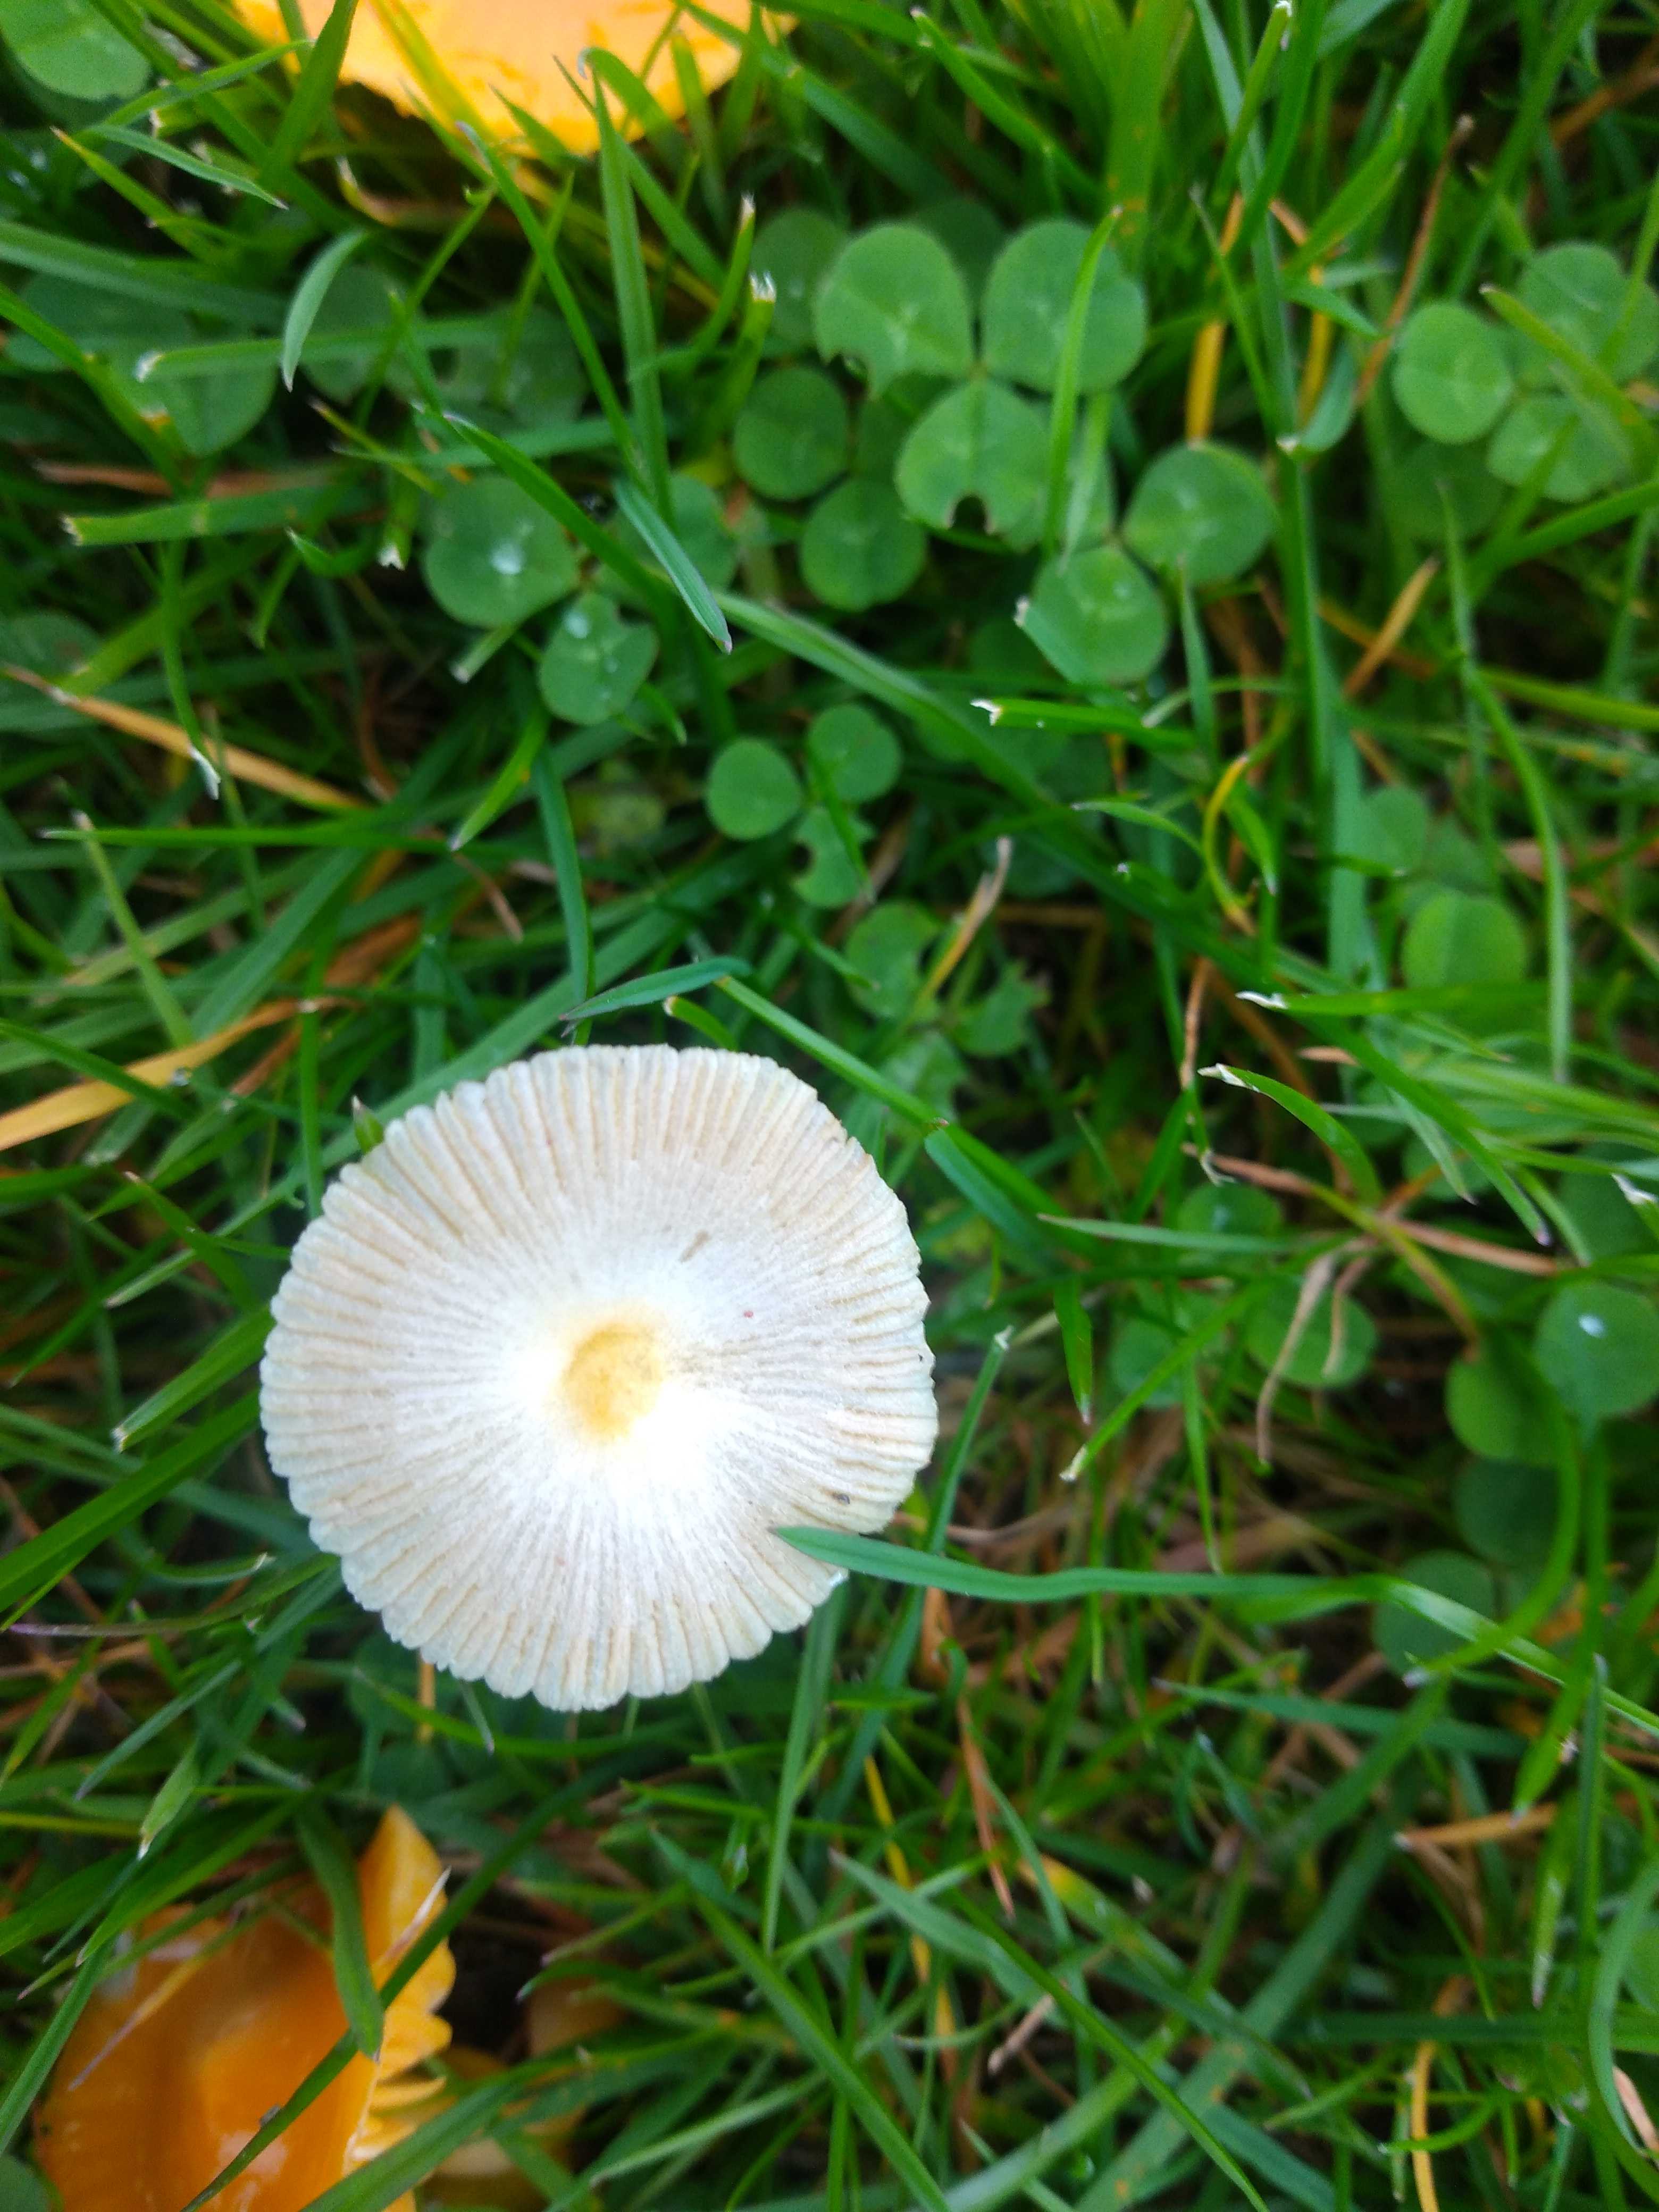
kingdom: Fungi
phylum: Basidiomycota
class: Agaricomycetes
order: Agaricales
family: Bolbitiaceae
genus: Bolbitius
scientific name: Bolbitius titubans
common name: almindelig gulhat
